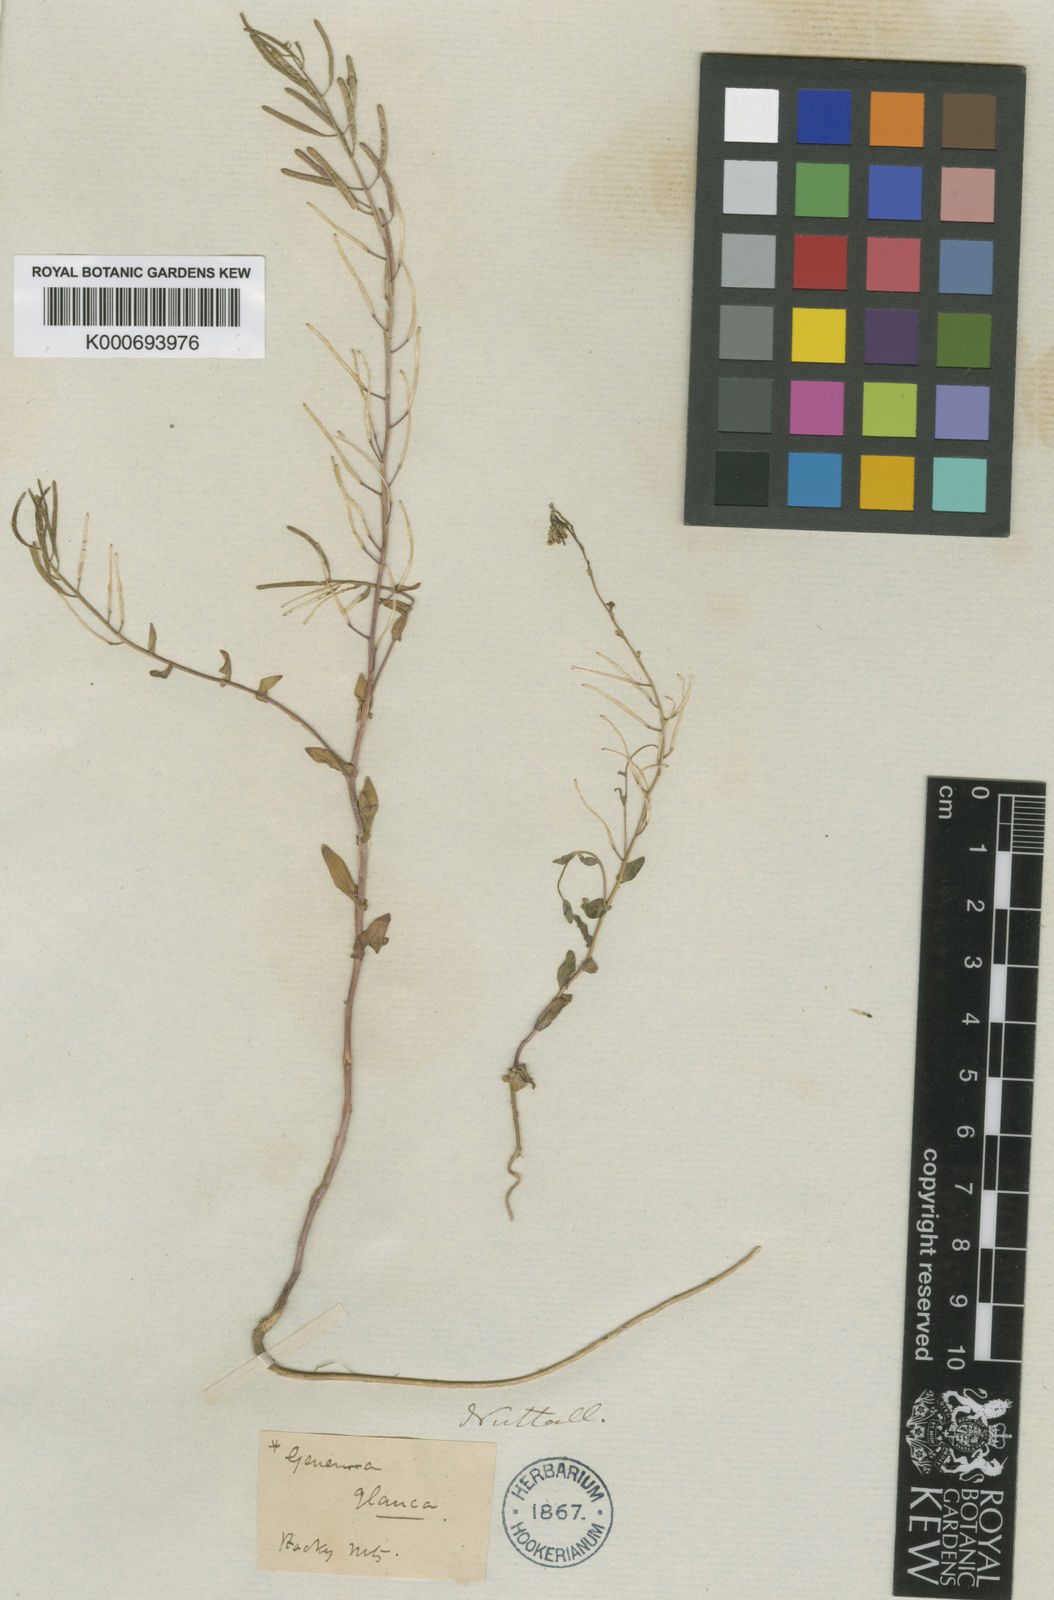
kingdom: Plantae
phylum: Tracheophyta
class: Magnoliopsida
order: Brassicales
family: Brassicaceae
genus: Eutrema
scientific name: Eutrema salsugineum
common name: Mouse-ear cress
